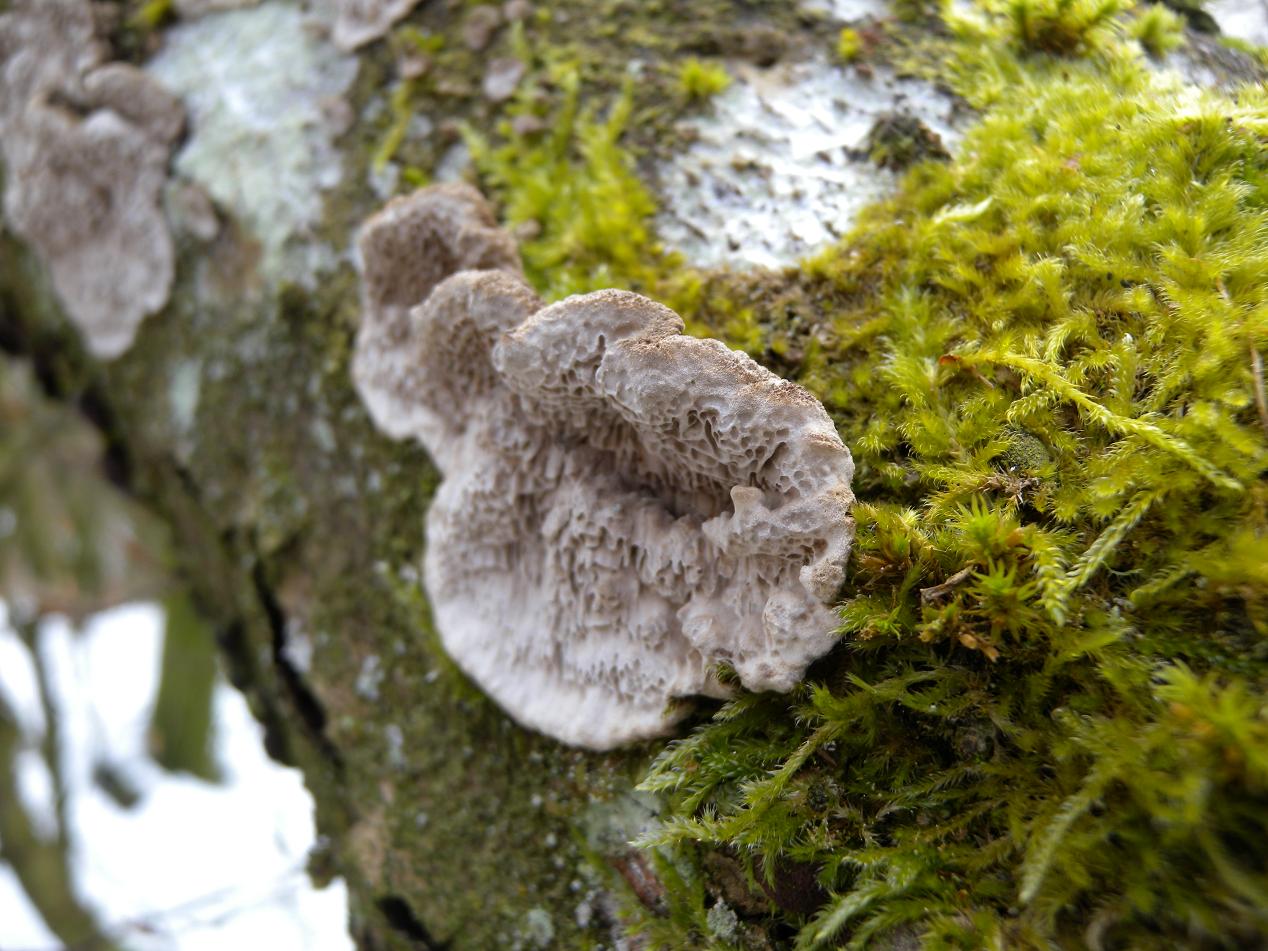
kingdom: Fungi
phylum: Basidiomycota
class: Agaricomycetes
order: Polyporales
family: Polyporaceae
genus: Podofomes
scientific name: Podofomes mollis
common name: blød begporesvamp
